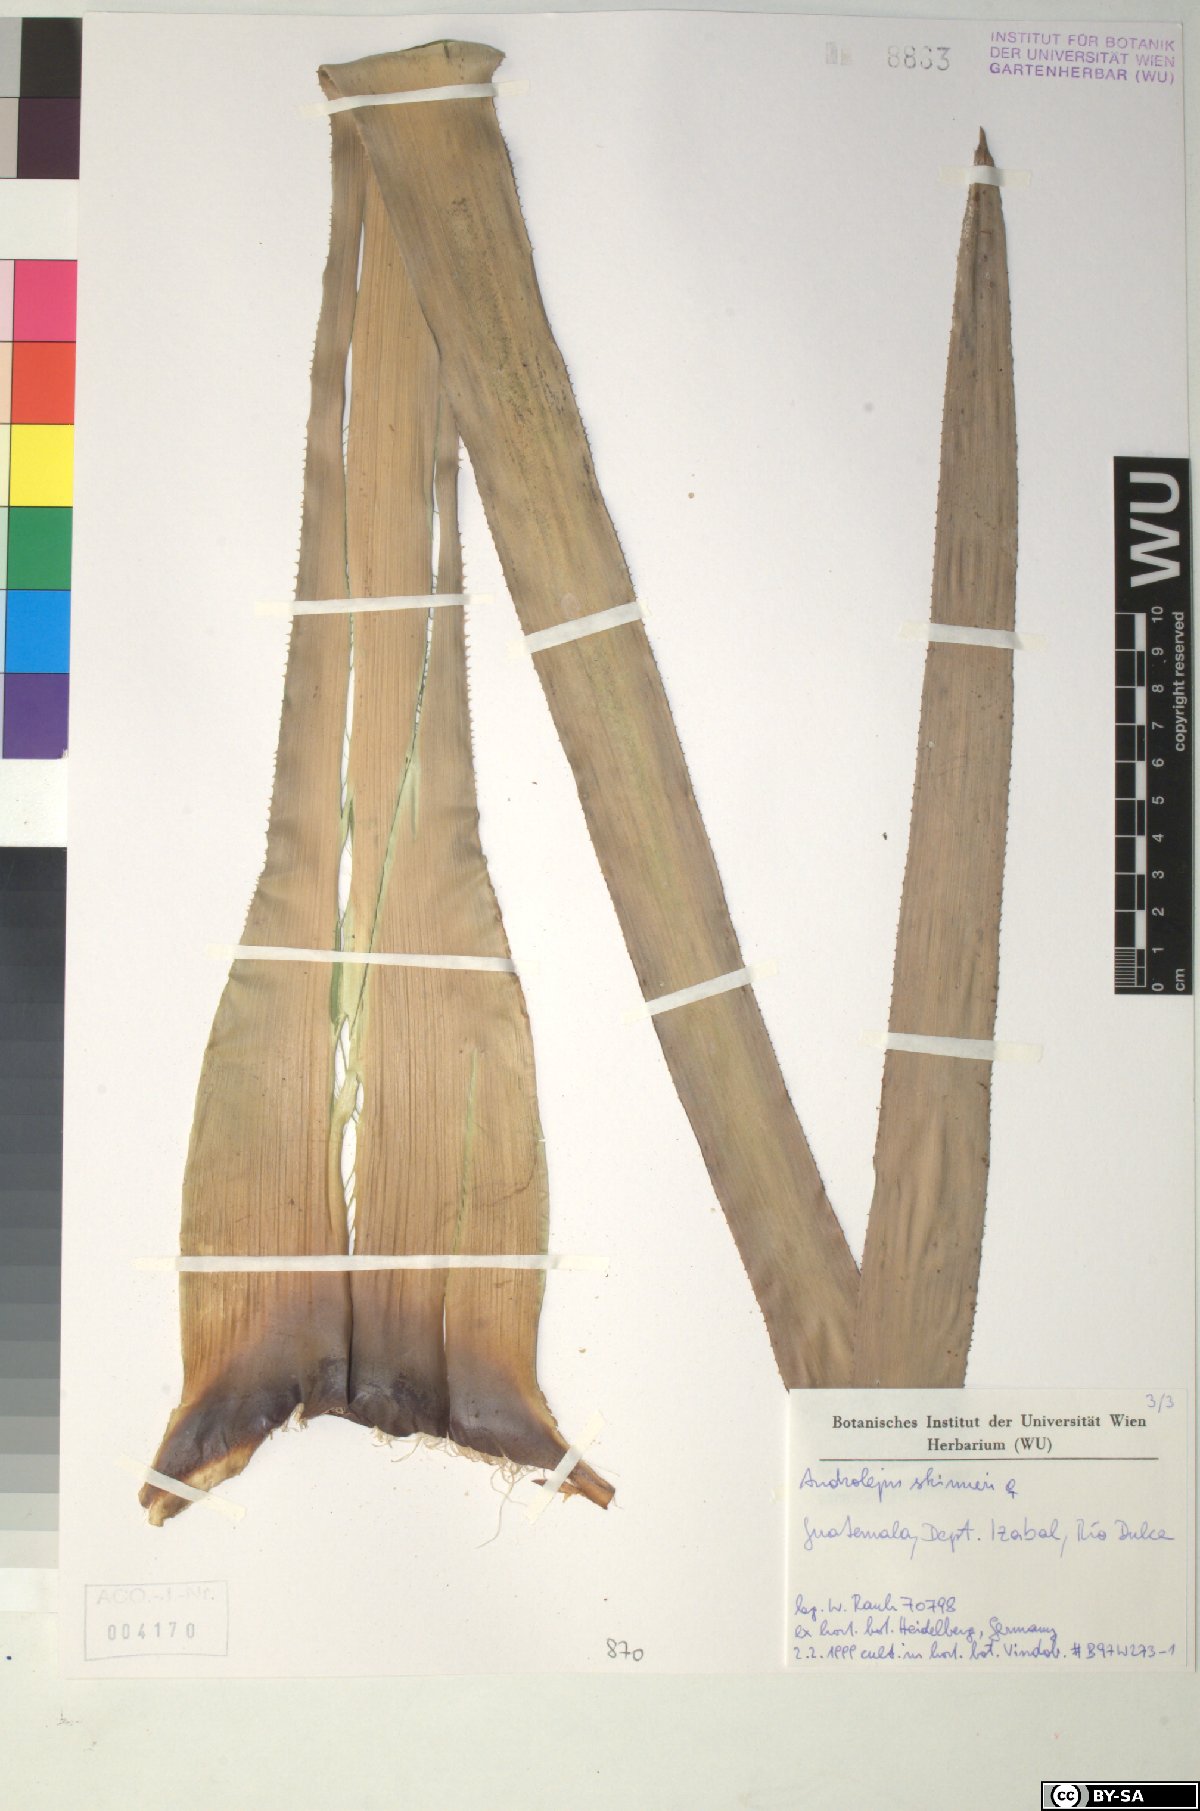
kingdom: Plantae
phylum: Tracheophyta
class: Liliopsida
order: Poales
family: Bromeliaceae
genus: Androlepis
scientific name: Androlepis skinneri
